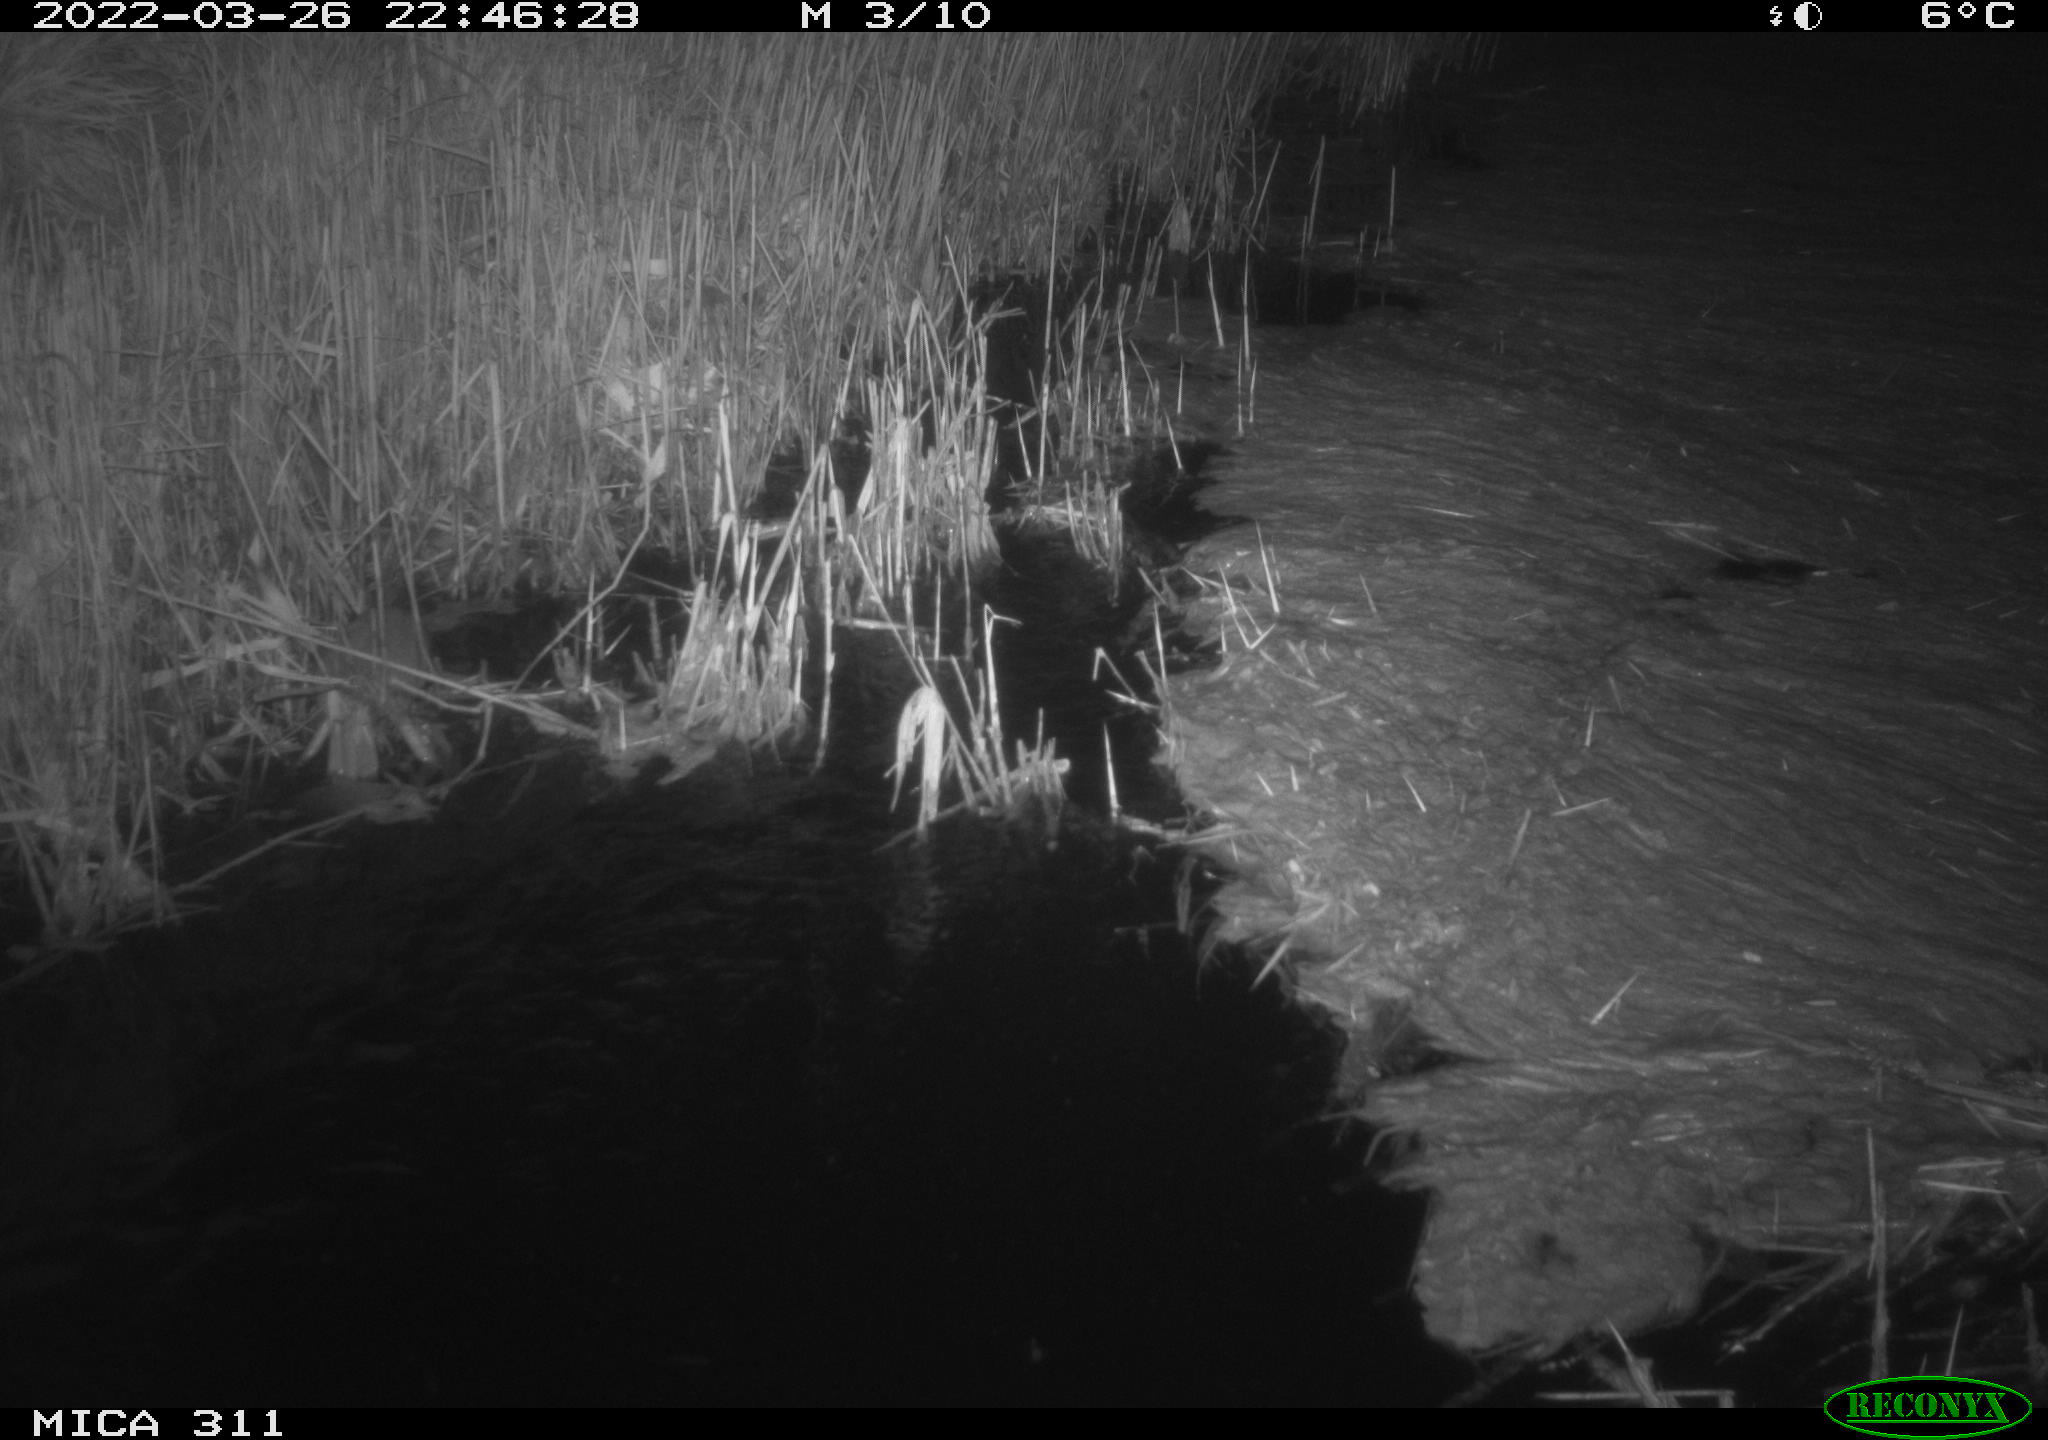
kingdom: Animalia
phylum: Chordata
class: Mammalia
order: Rodentia
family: Cricetidae
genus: Ondatra
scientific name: Ondatra zibethicus
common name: Muskrat
